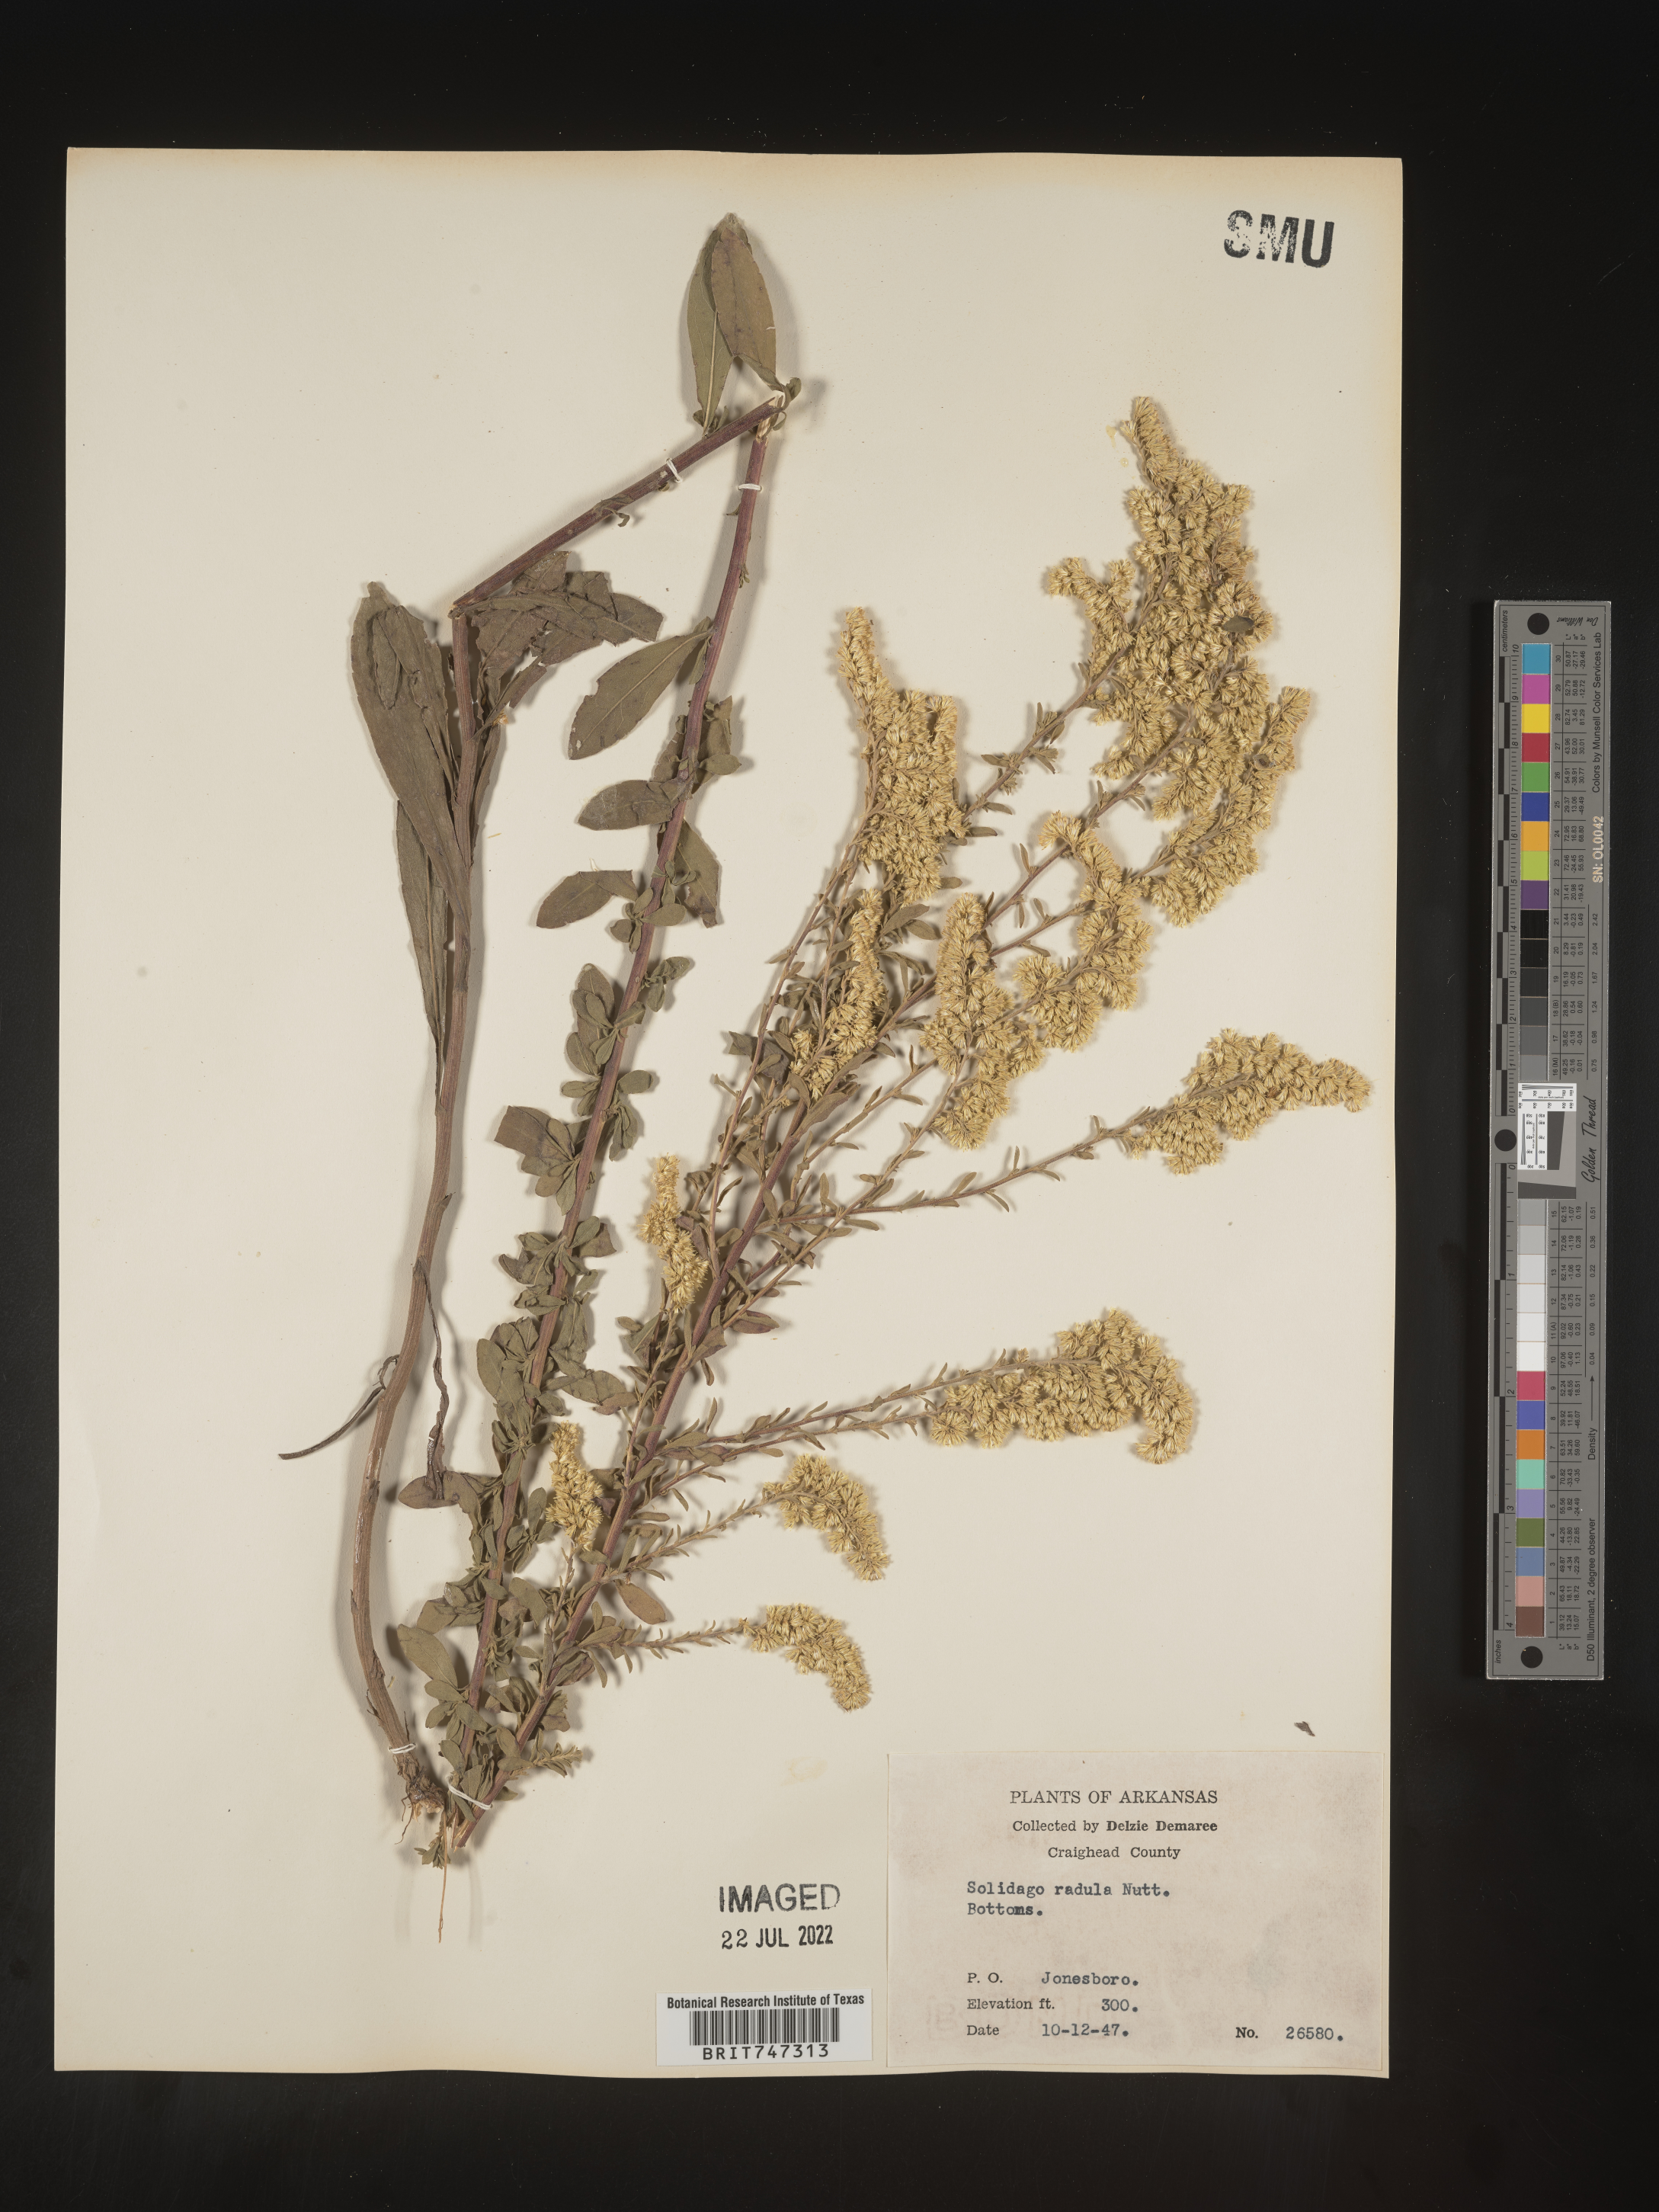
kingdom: Plantae
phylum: Tracheophyta
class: Magnoliopsida
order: Asterales
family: Asteraceae
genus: Solidago
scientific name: Solidago nemoralis
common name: Grey goldenrod
